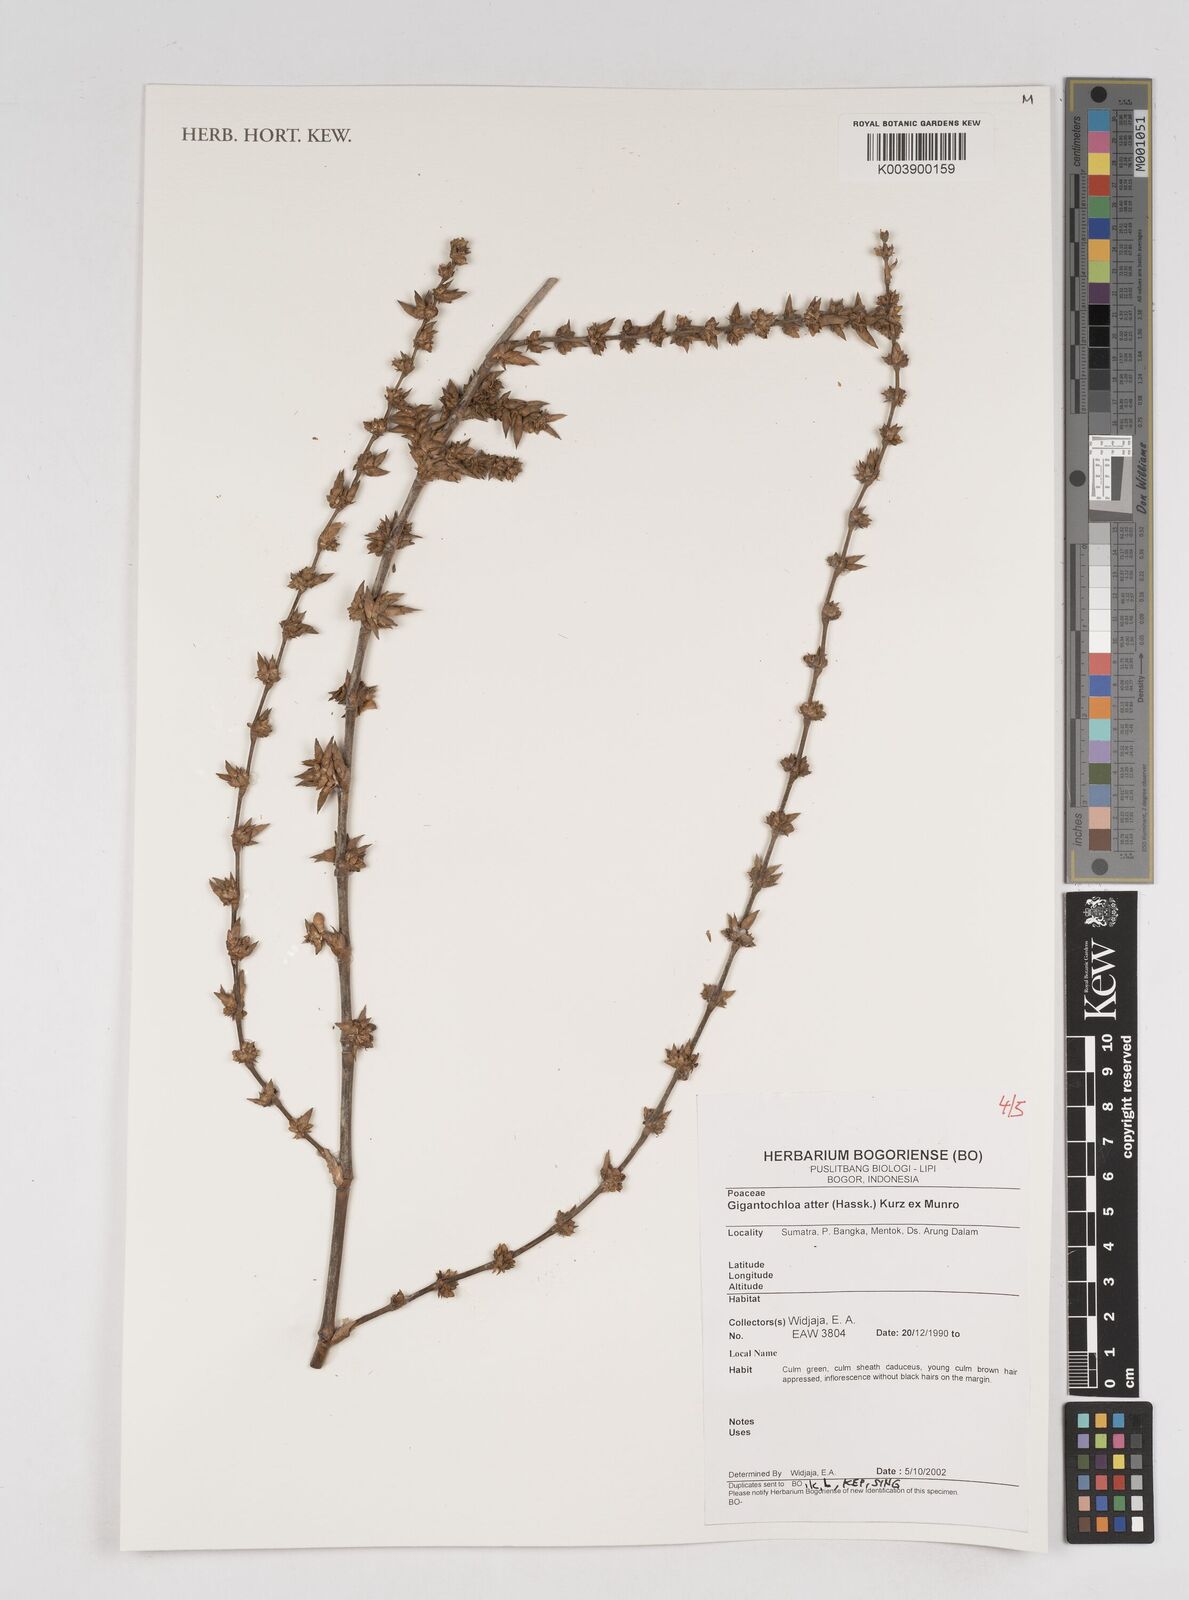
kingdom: Plantae
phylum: Tracheophyta
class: Liliopsida
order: Poales
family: Poaceae
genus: Gigantochloa
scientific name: Gigantochloa atter
